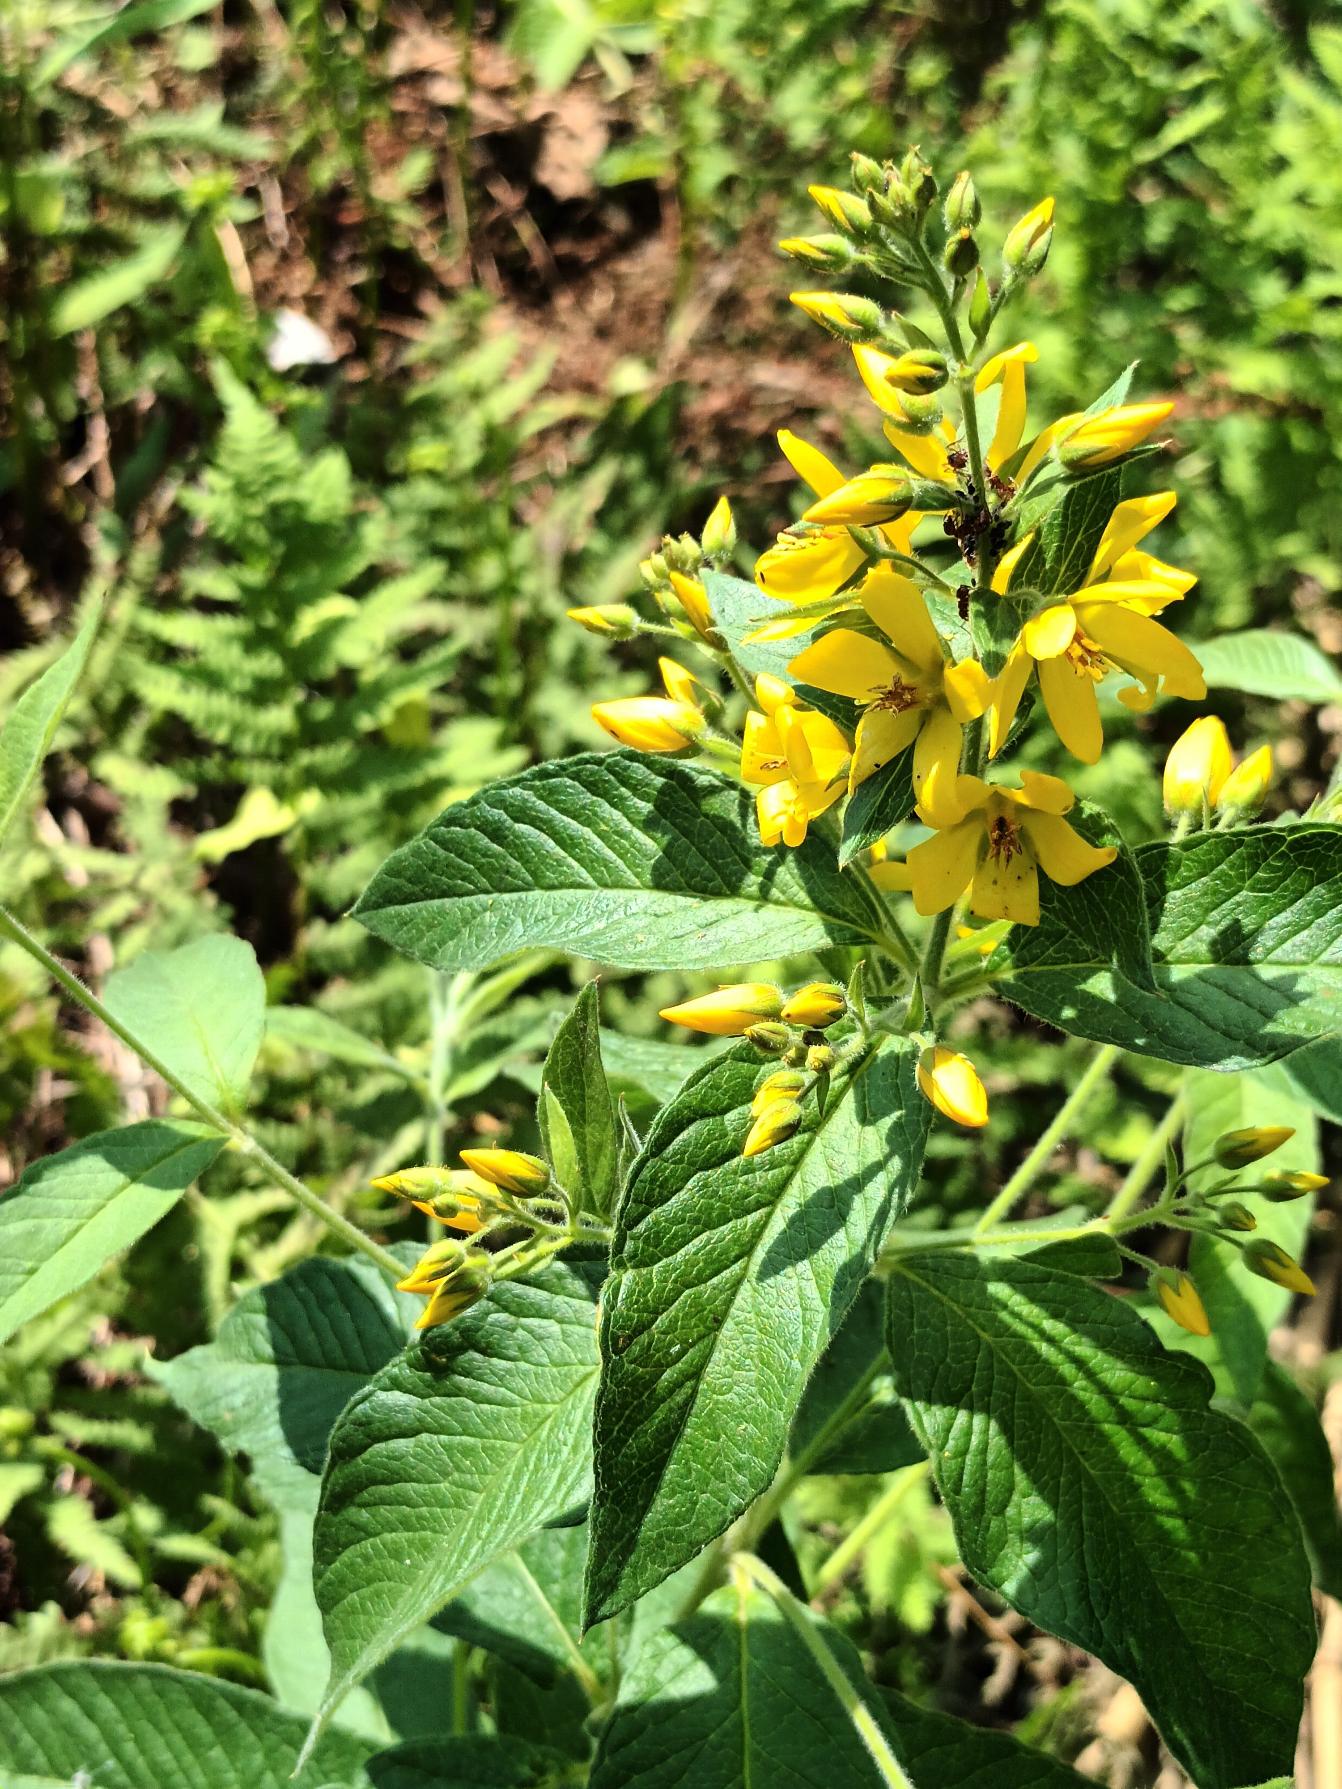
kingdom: Plantae
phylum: Tracheophyta
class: Magnoliopsida
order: Ericales
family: Primulaceae
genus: Lysimachia
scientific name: Lysimachia vulgaris
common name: Almindelig fredløs
